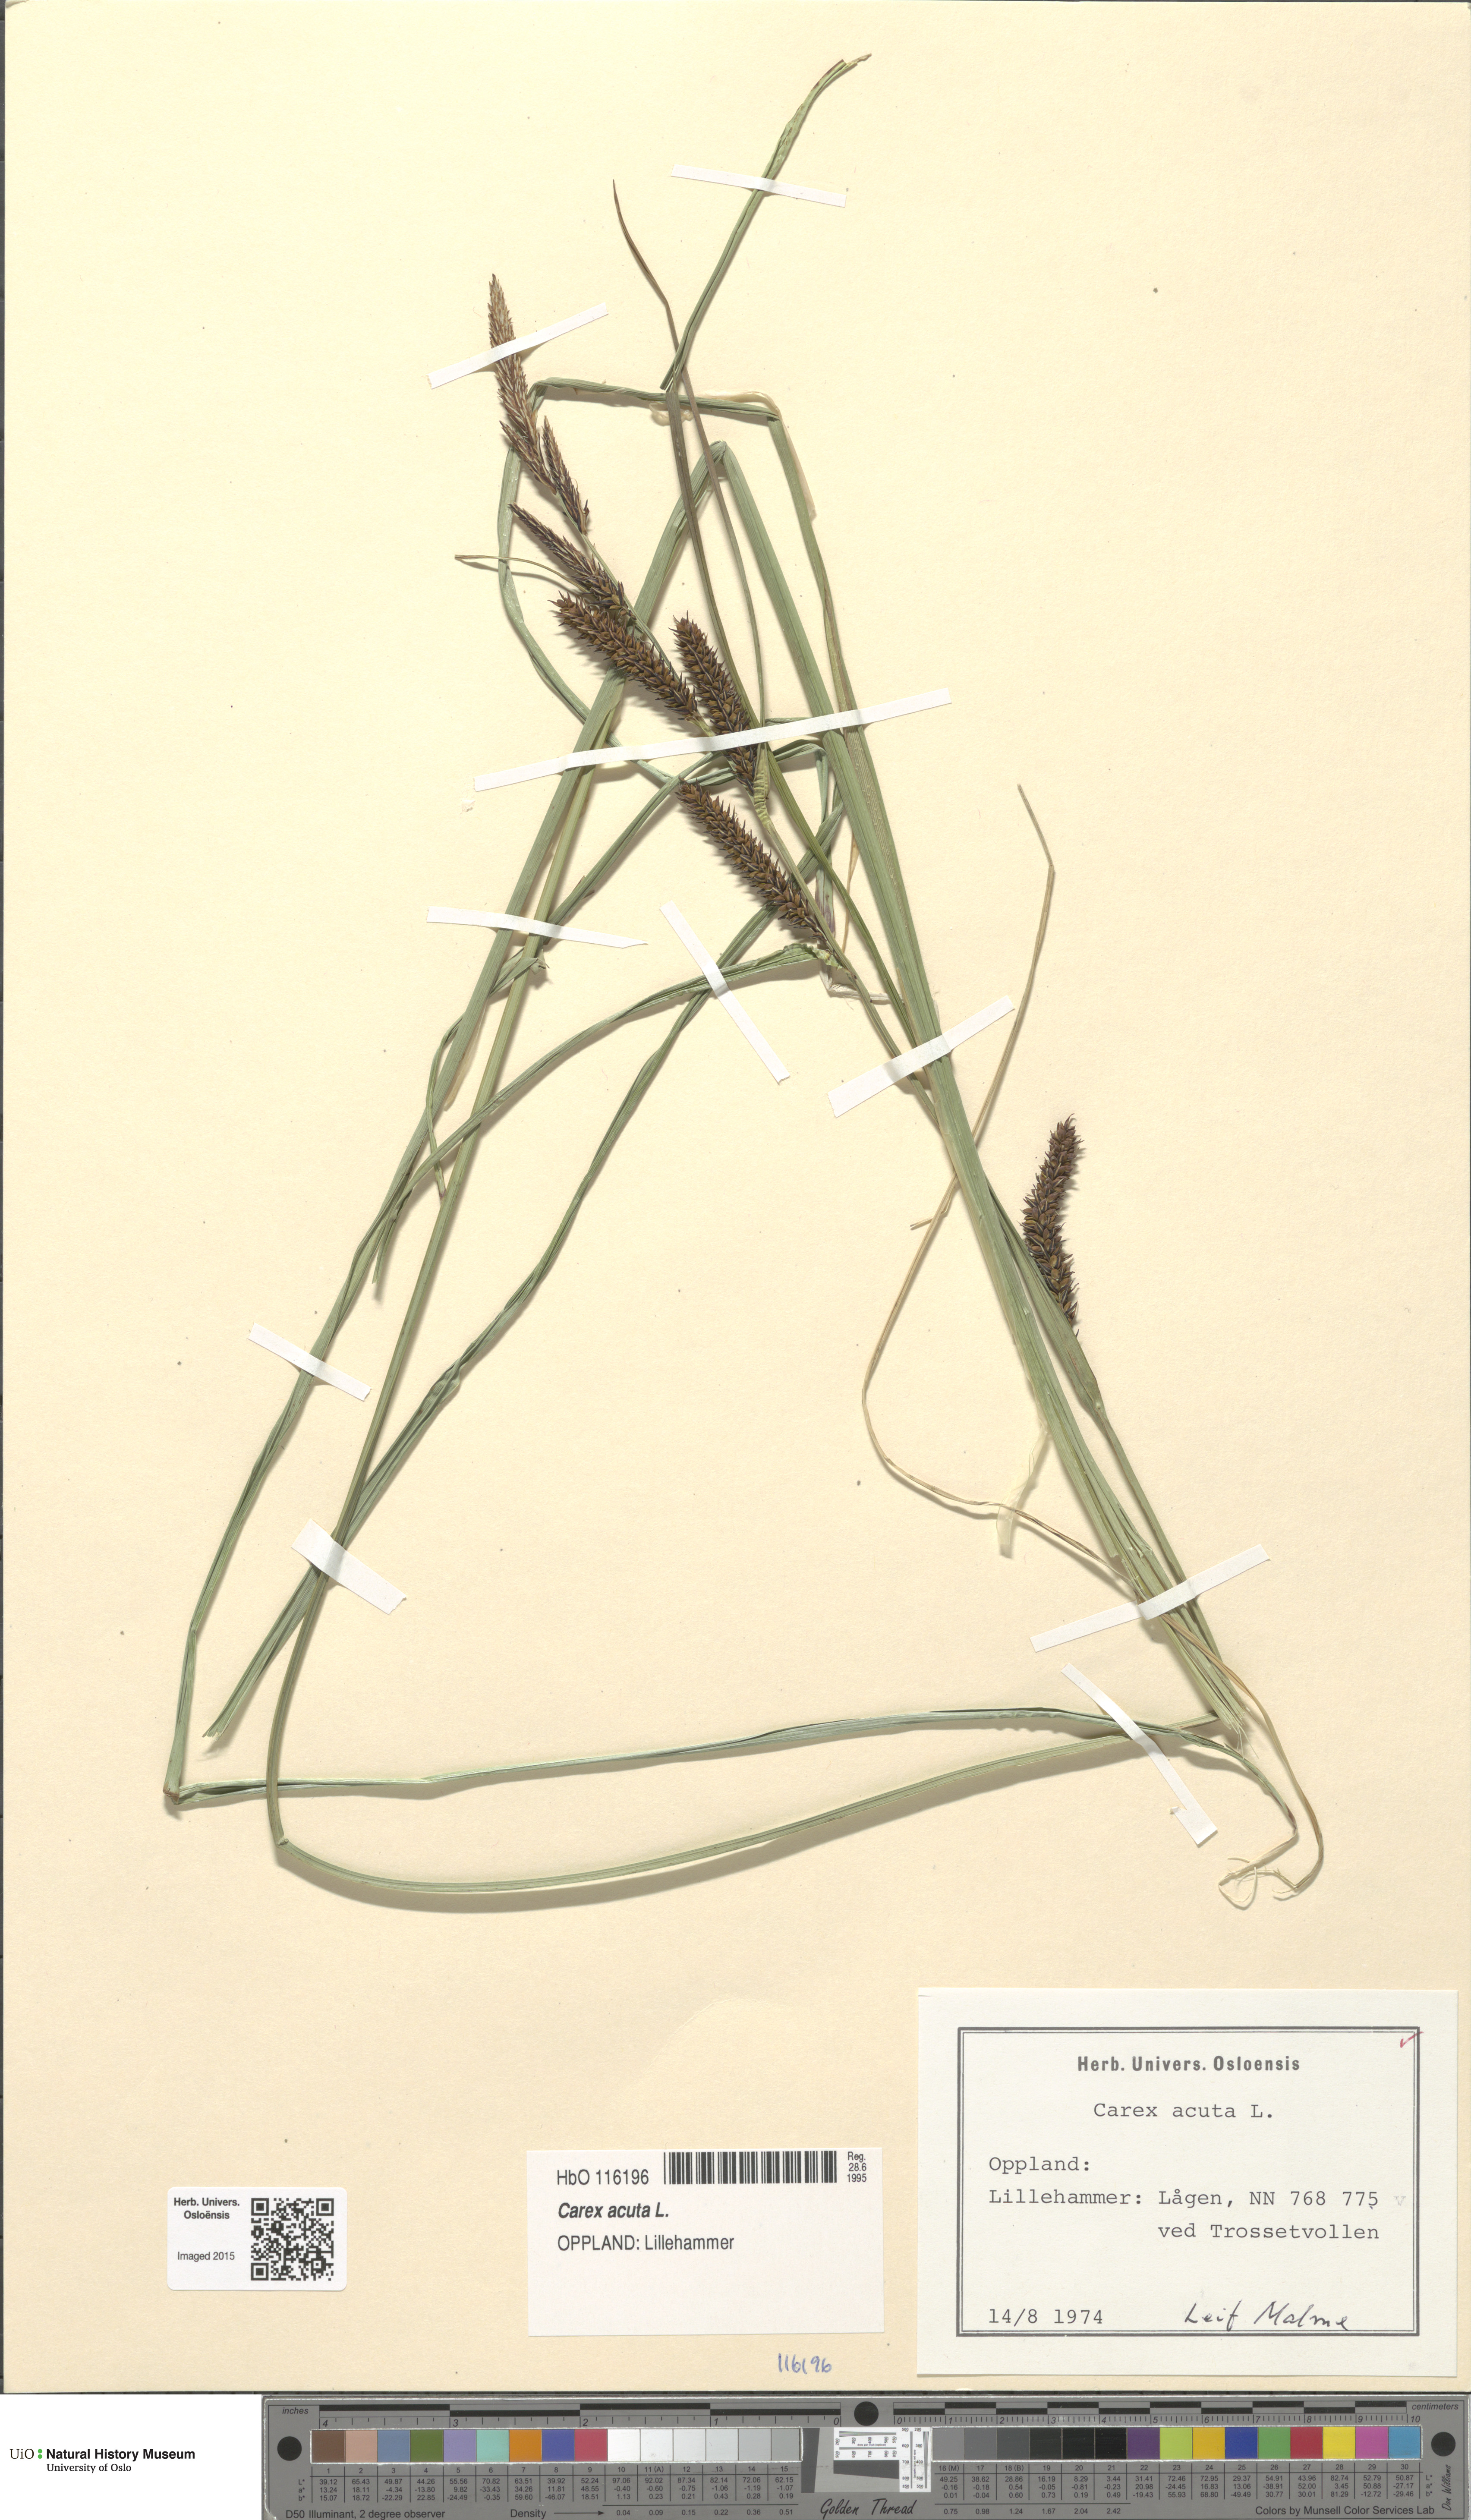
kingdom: Plantae
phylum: Tracheophyta
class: Liliopsida
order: Poales
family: Cyperaceae
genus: Carex
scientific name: Carex acuta
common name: Slender tufted-sedge
